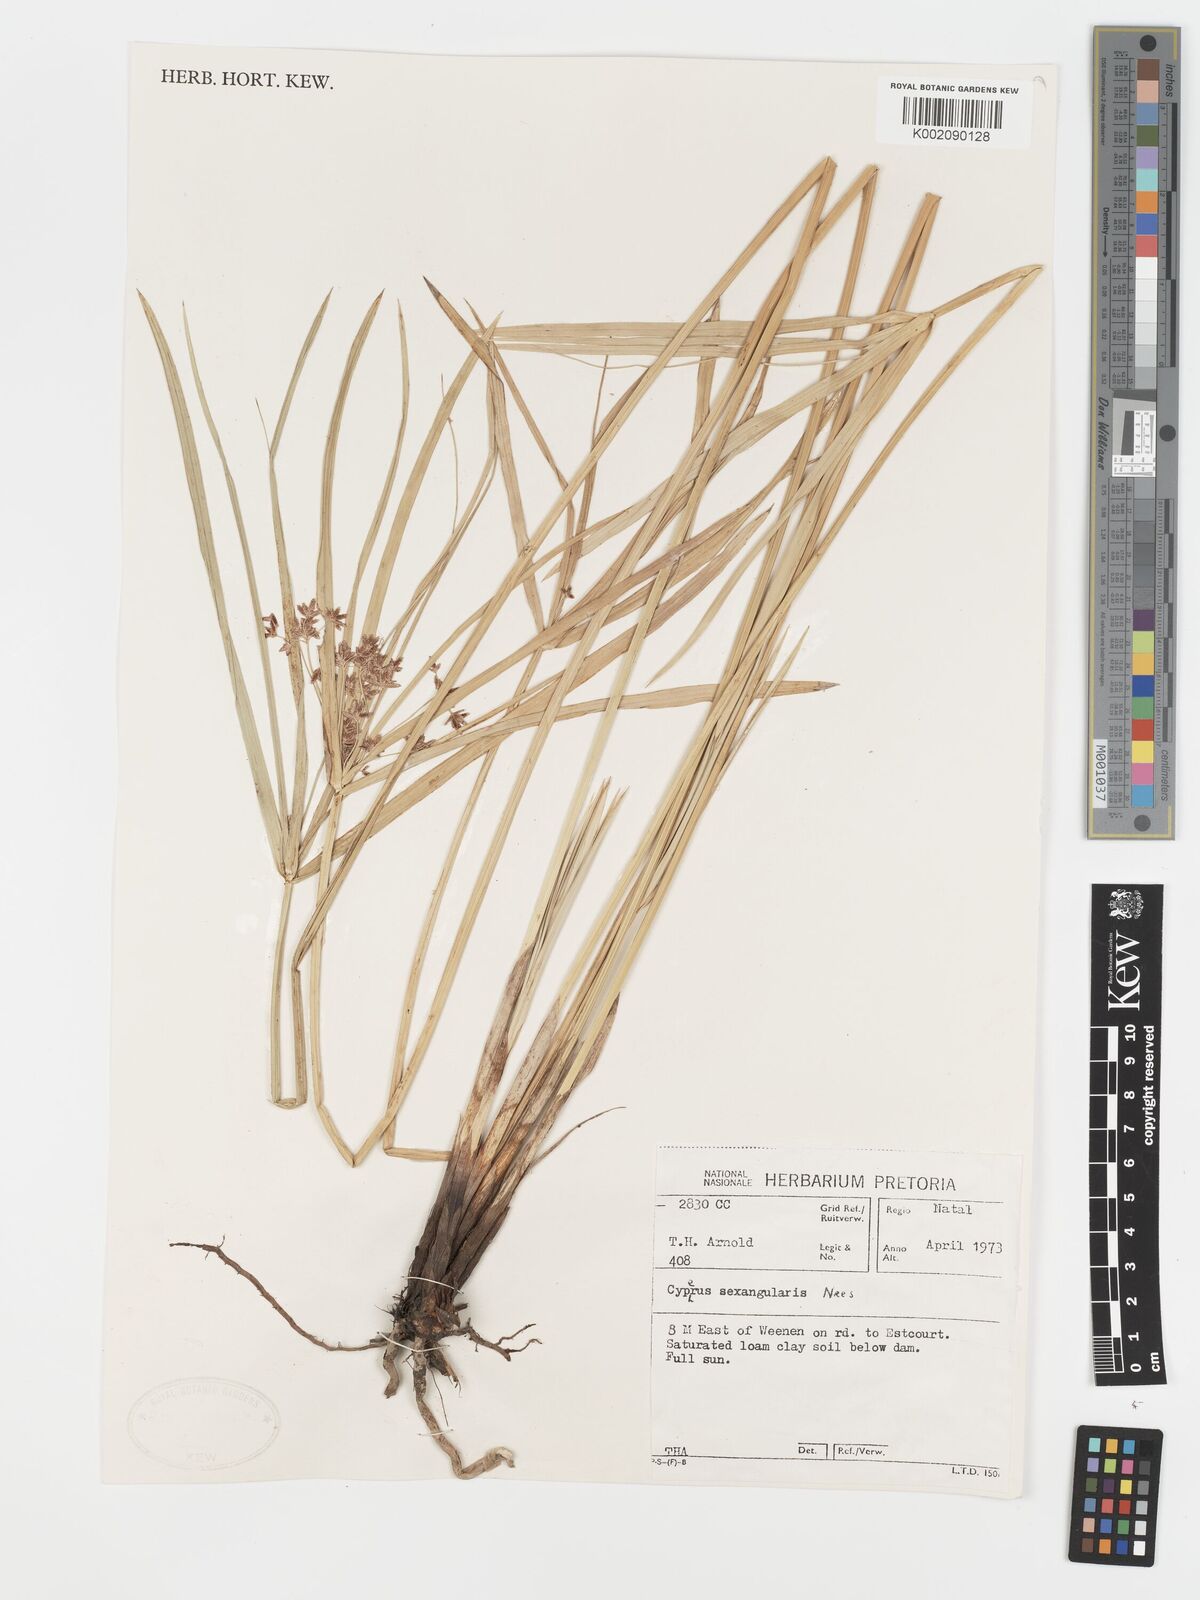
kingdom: Plantae
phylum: Tracheophyta
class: Liliopsida
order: Poales
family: Cyperaceae
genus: Cyperus
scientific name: Cyperus sexangularis
